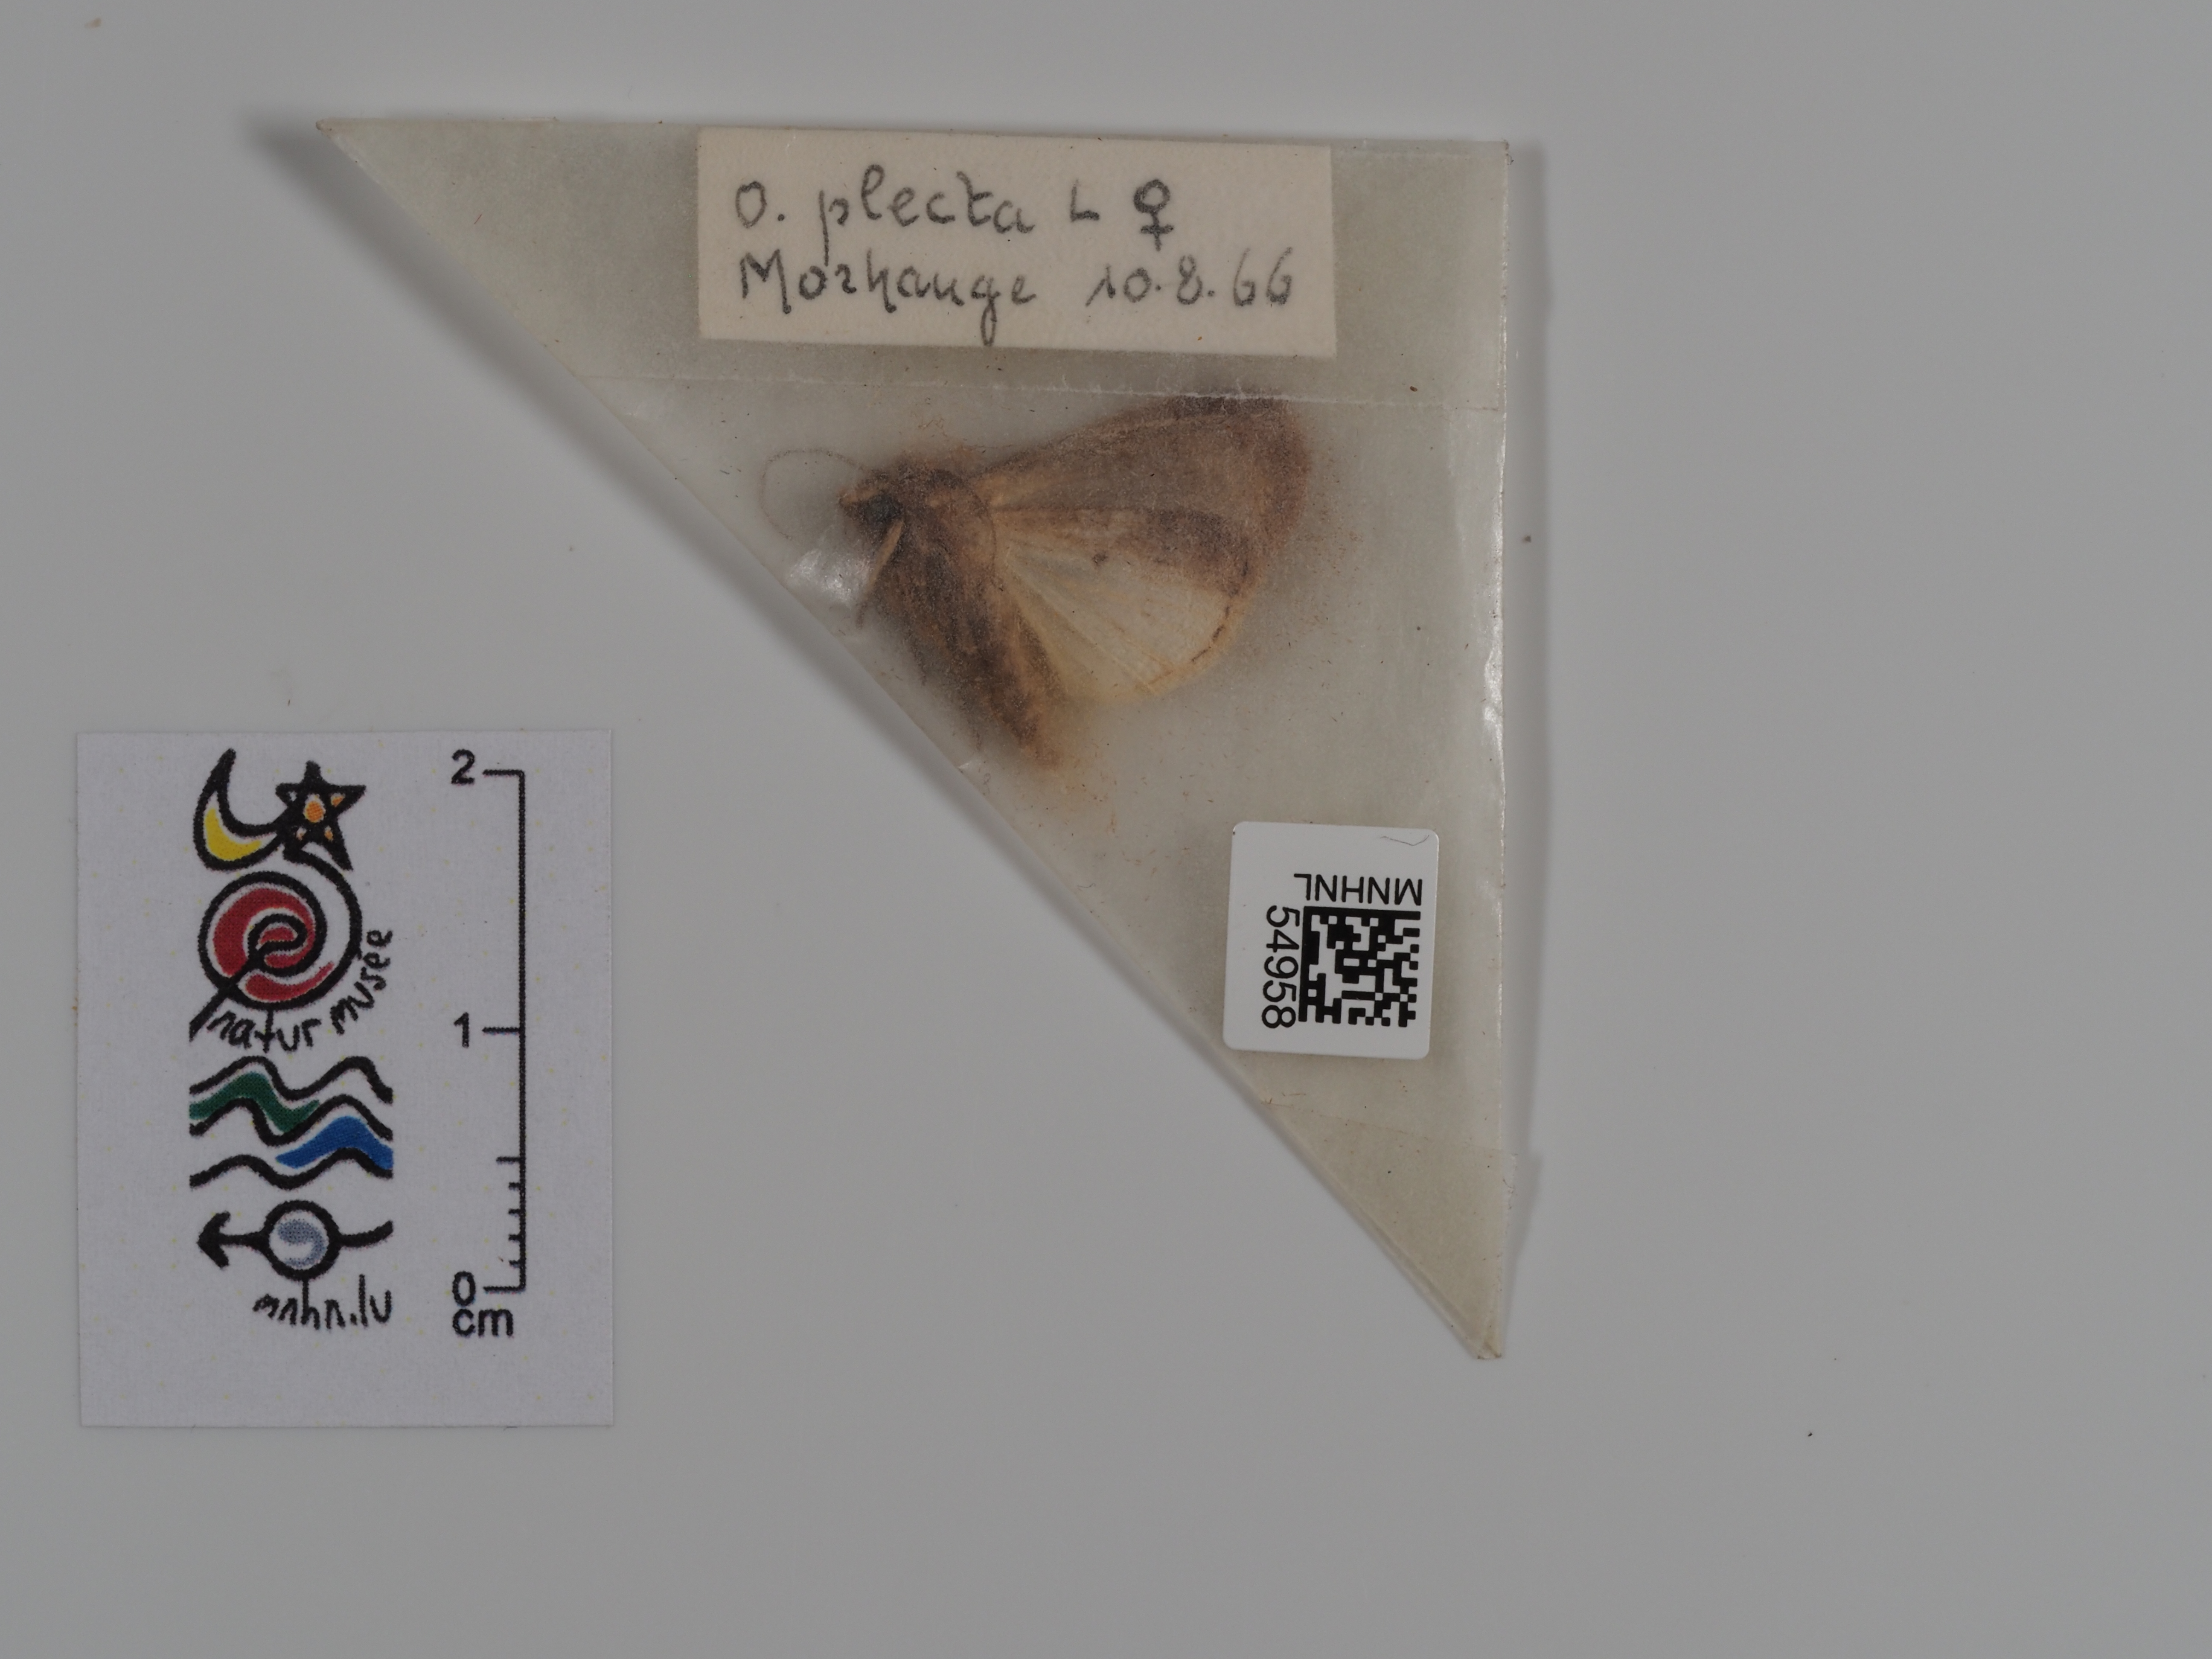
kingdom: Animalia
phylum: Arthropoda
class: Insecta
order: Lepidoptera
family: Noctuidae
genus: Ochropleura
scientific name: Ochropleura plecta
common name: Flame shoulder
